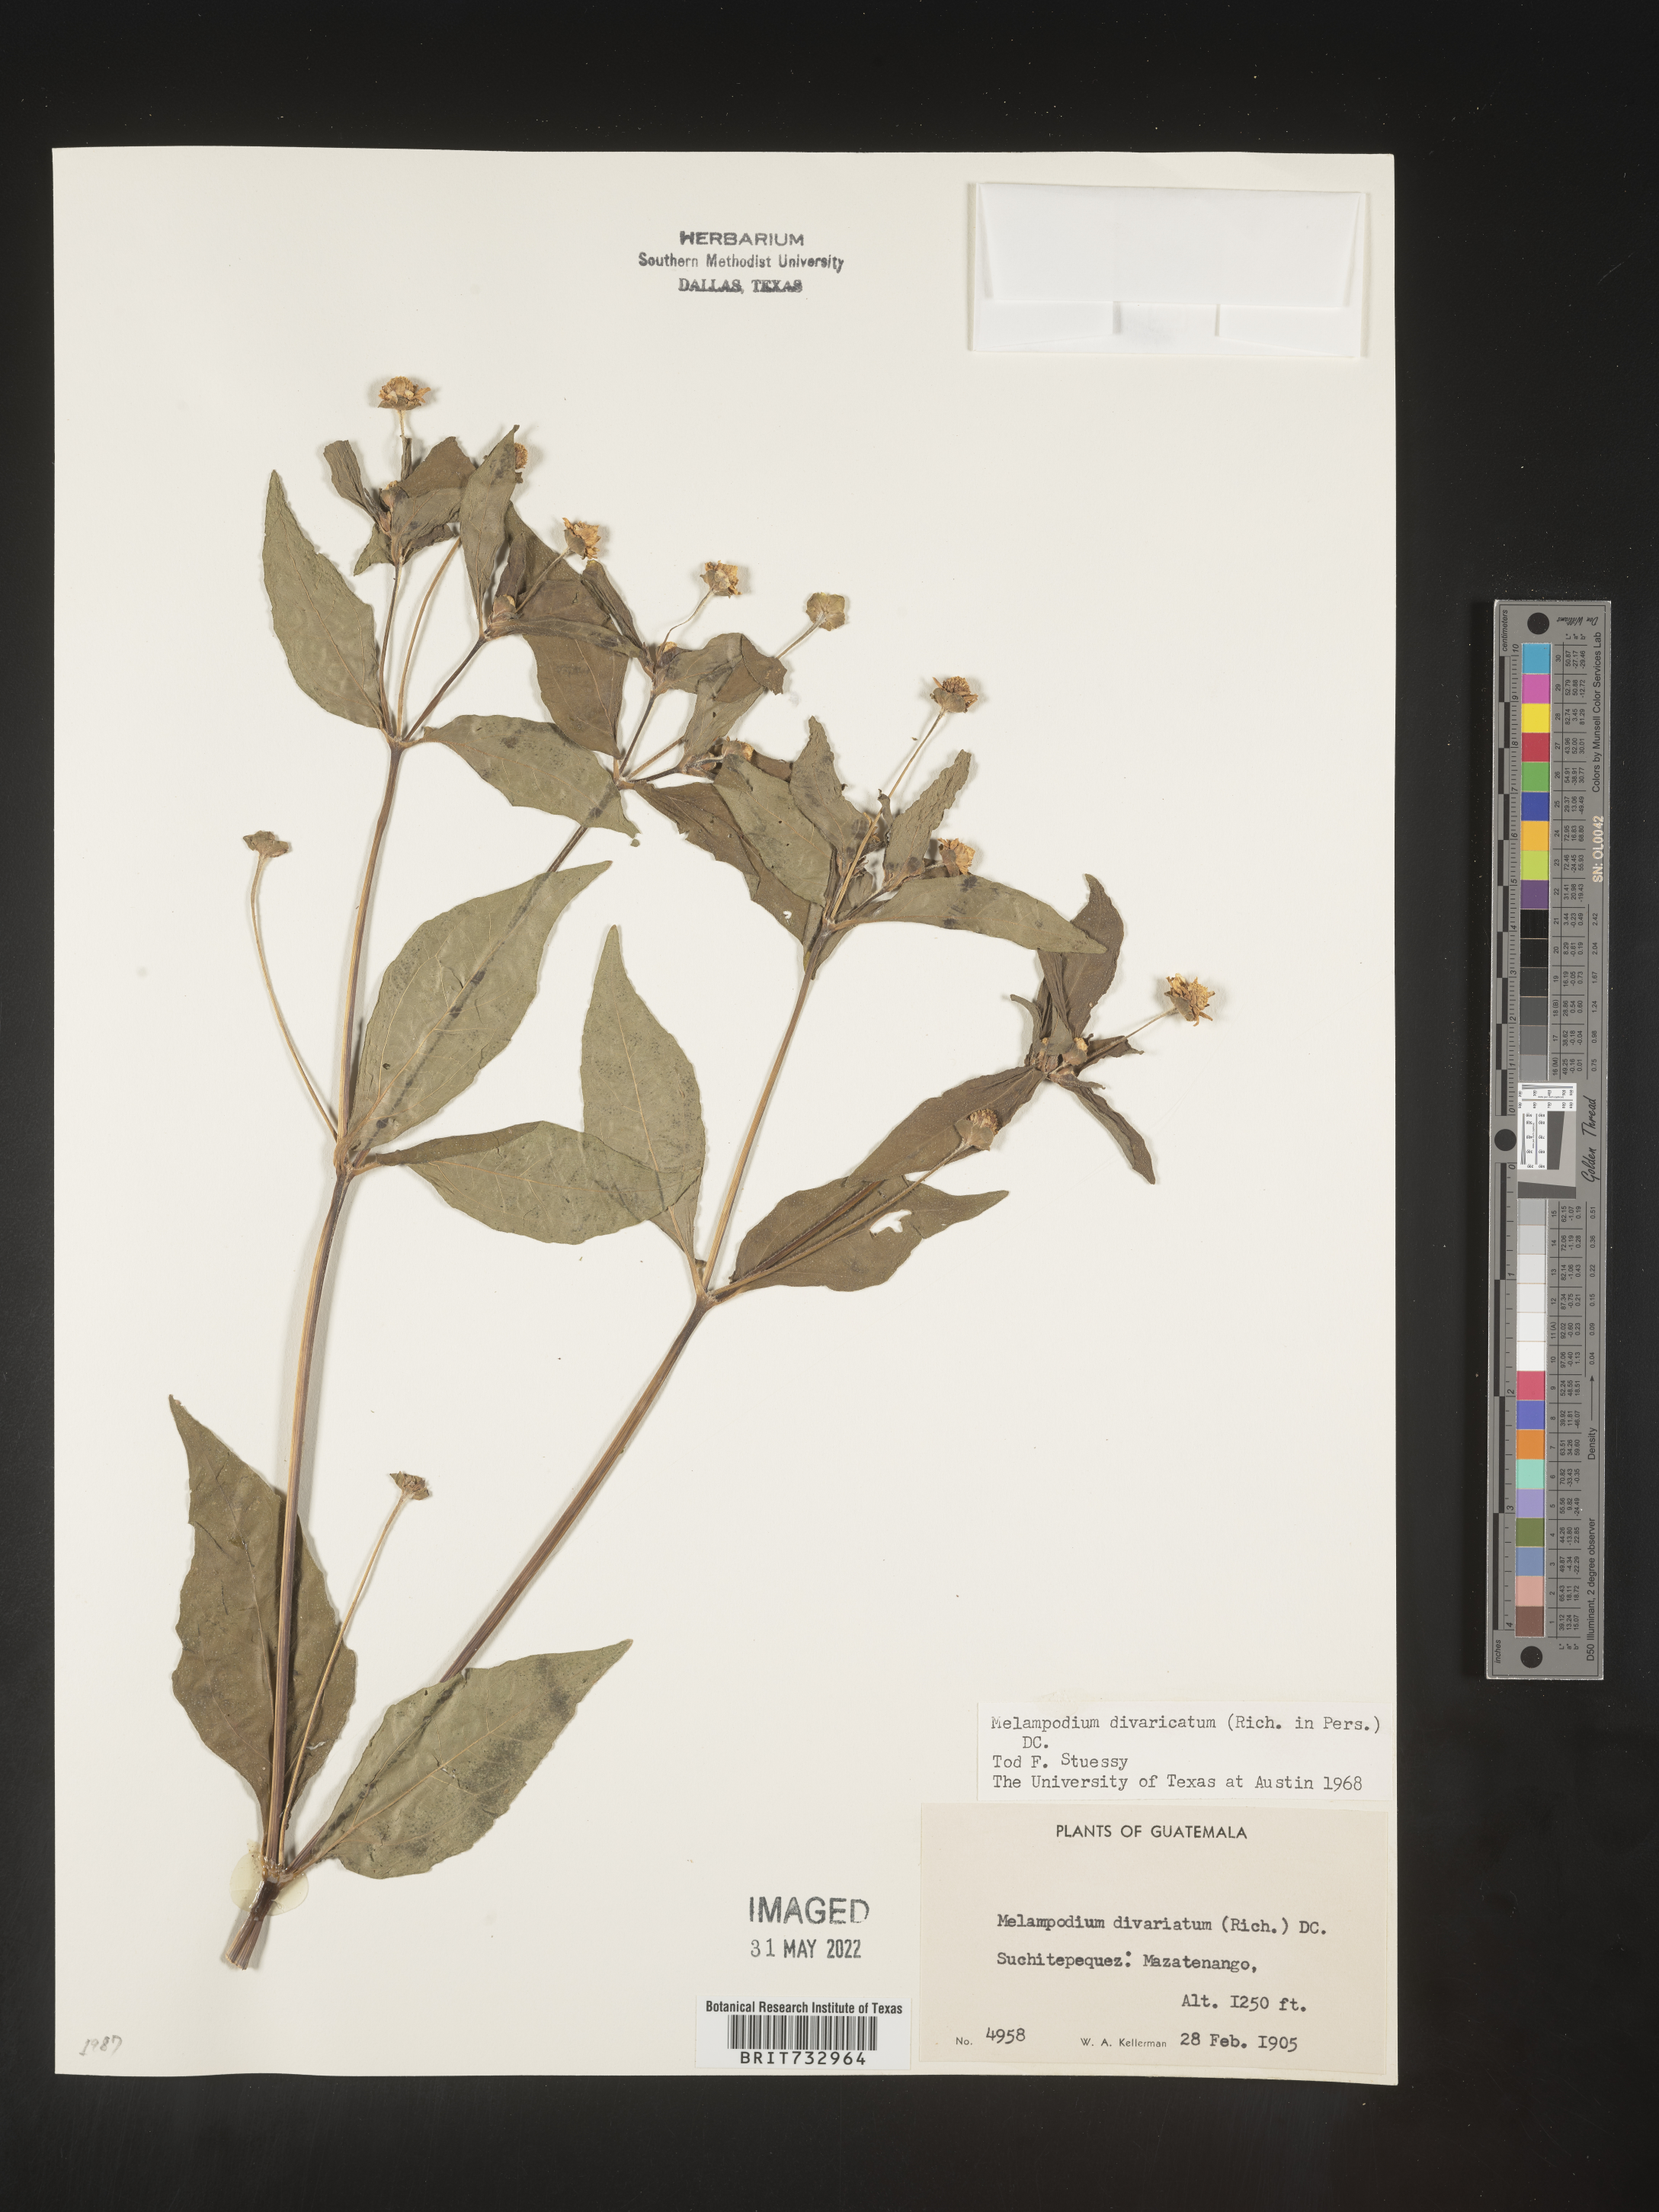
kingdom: Plantae
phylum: Tracheophyta
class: Magnoliopsida
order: Asterales
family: Asteraceae
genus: Melampodium
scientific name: Melampodium
